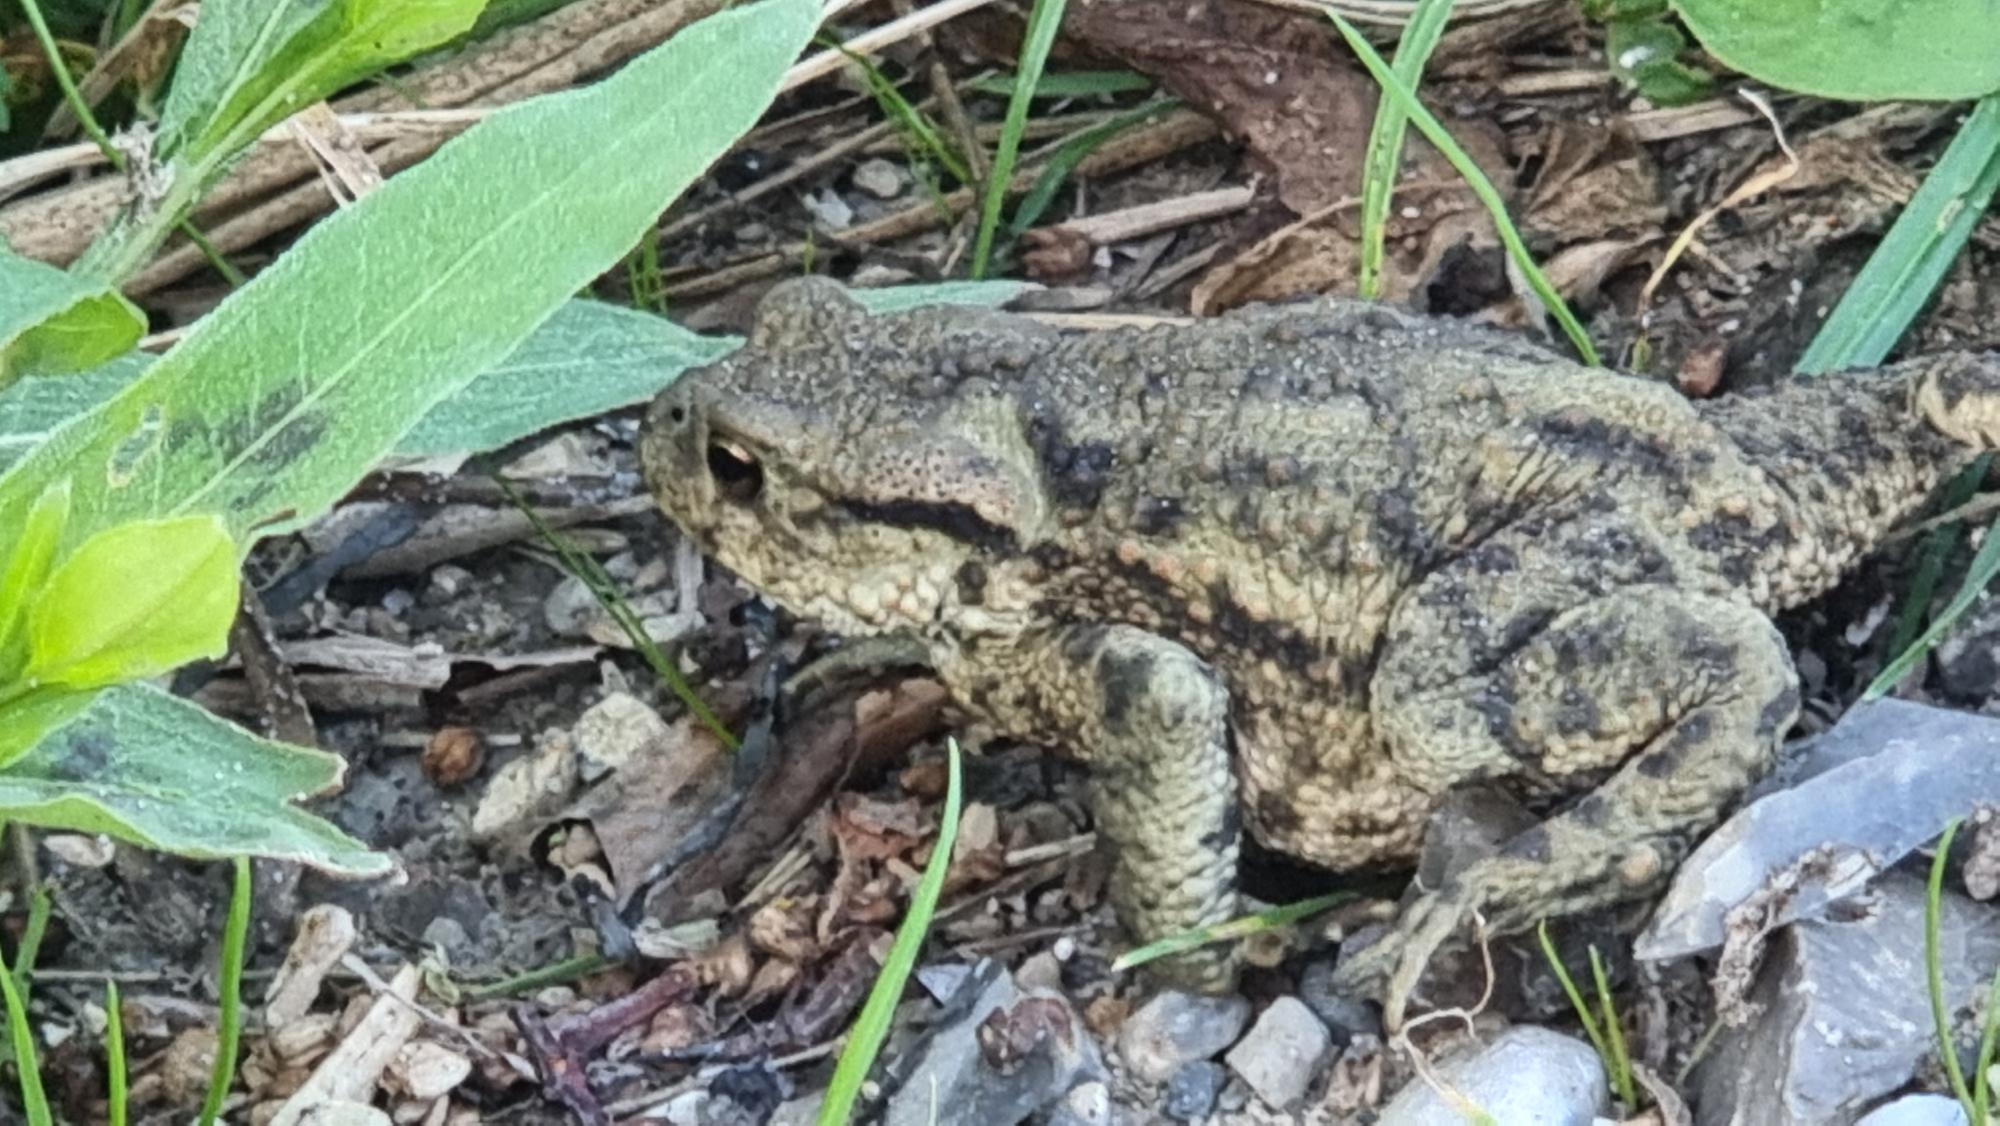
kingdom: Animalia
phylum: Chordata
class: Amphibia
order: Anura
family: Bufonidae
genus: Bufo
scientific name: Bufo bufo
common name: Skrubtudse
